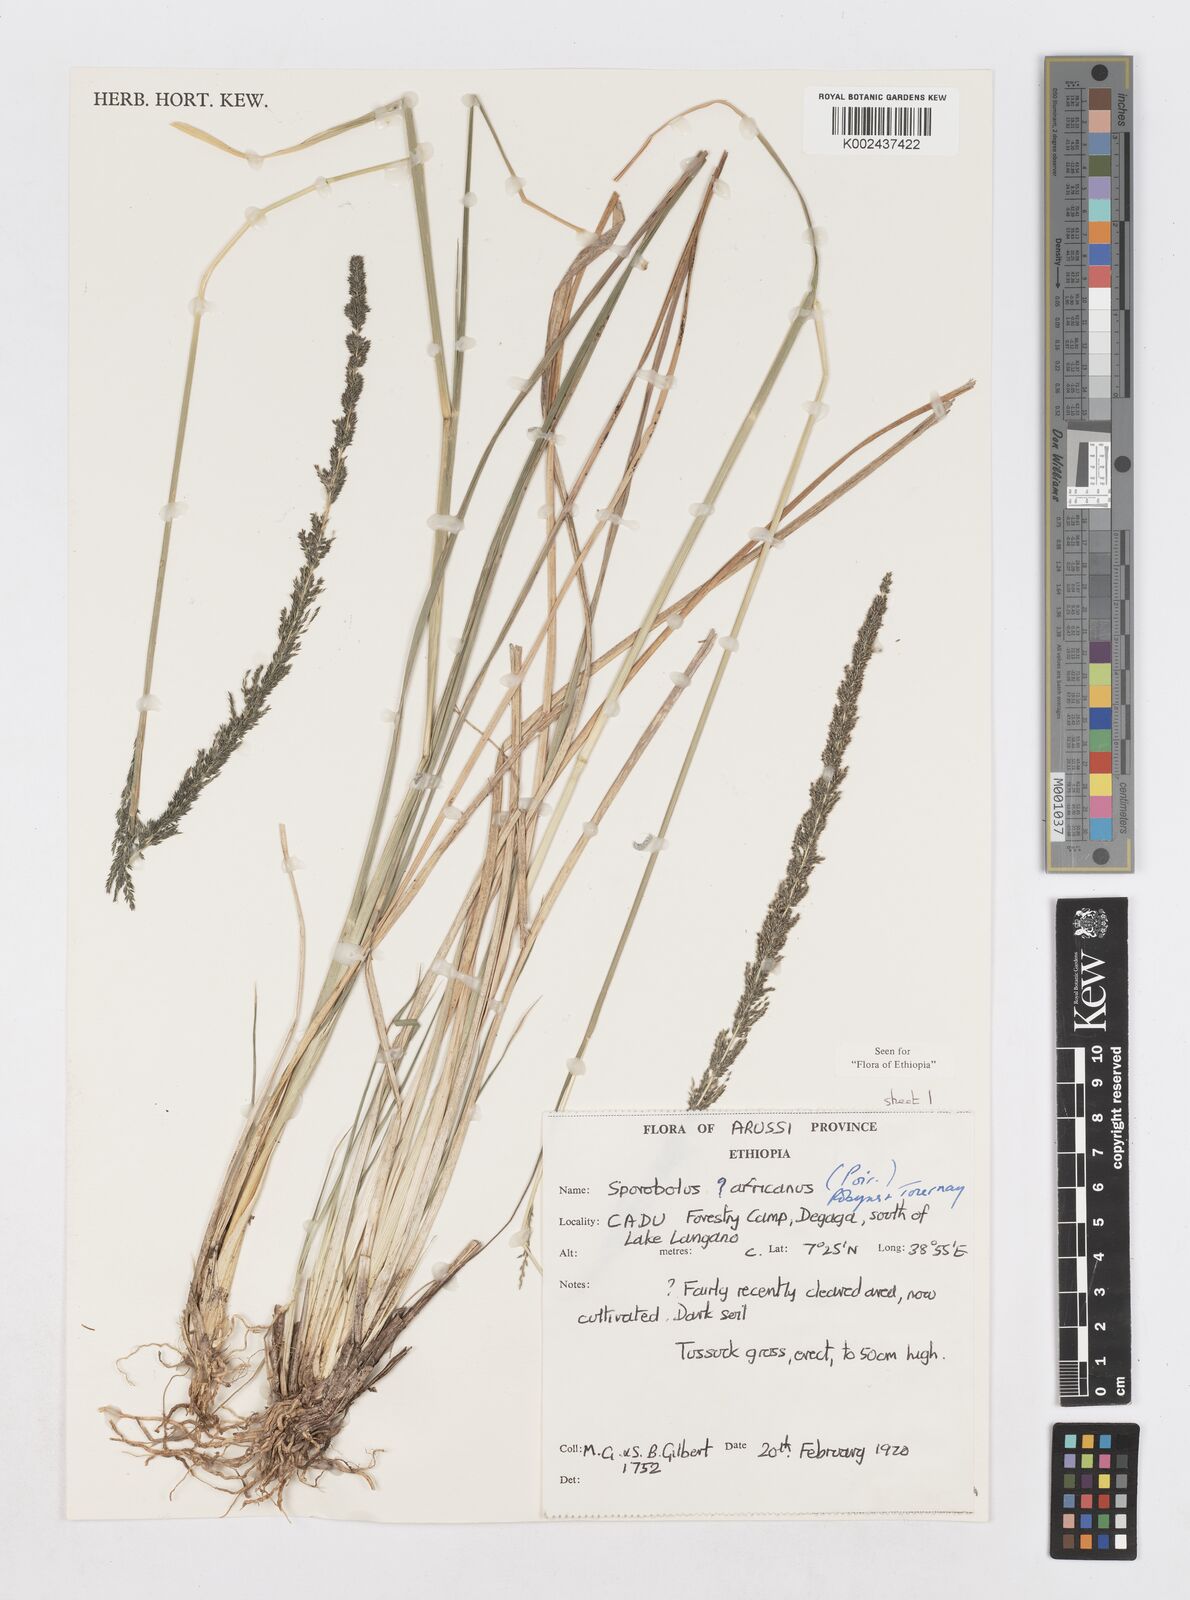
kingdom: Plantae
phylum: Tracheophyta
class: Liliopsida
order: Poales
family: Poaceae
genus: Sporobolus
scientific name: Sporobolus africanus
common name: African dropseed
